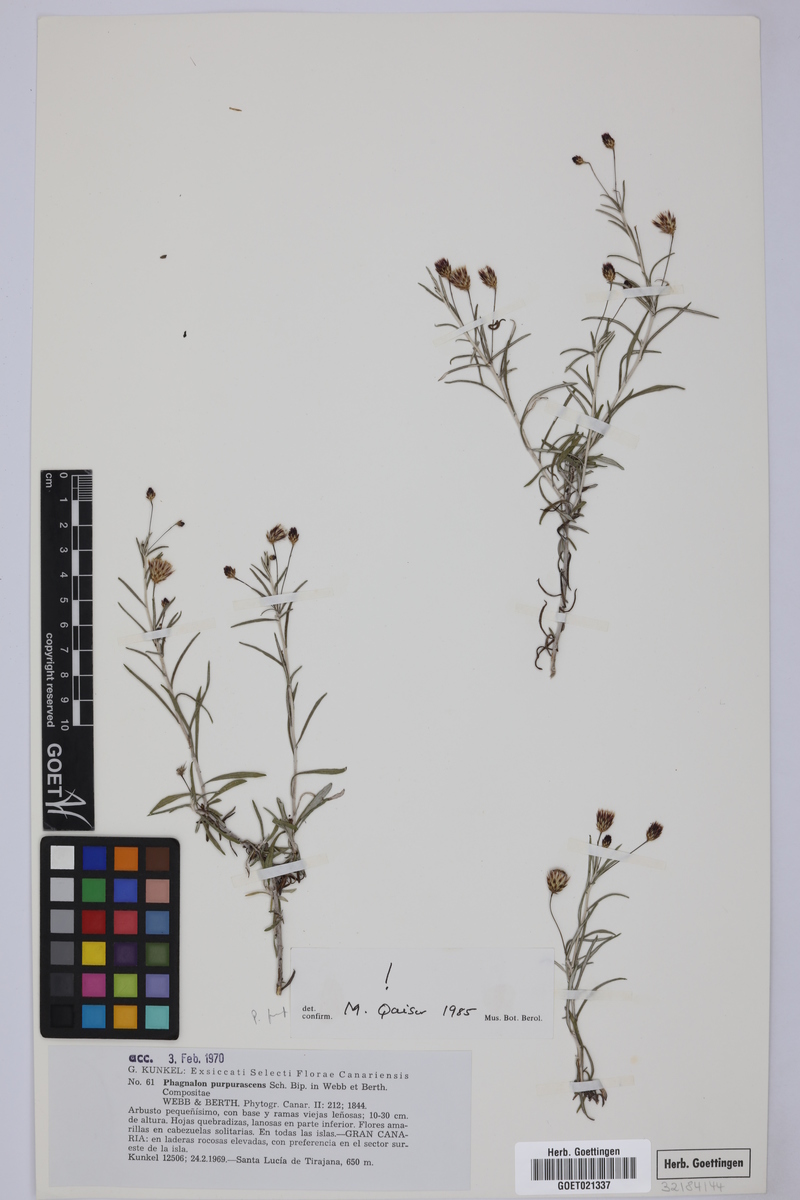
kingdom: Plantae
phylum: Tracheophyta
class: Magnoliopsida
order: Asterales
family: Asteraceae
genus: Phagnalon
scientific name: Phagnalon purpurascens
